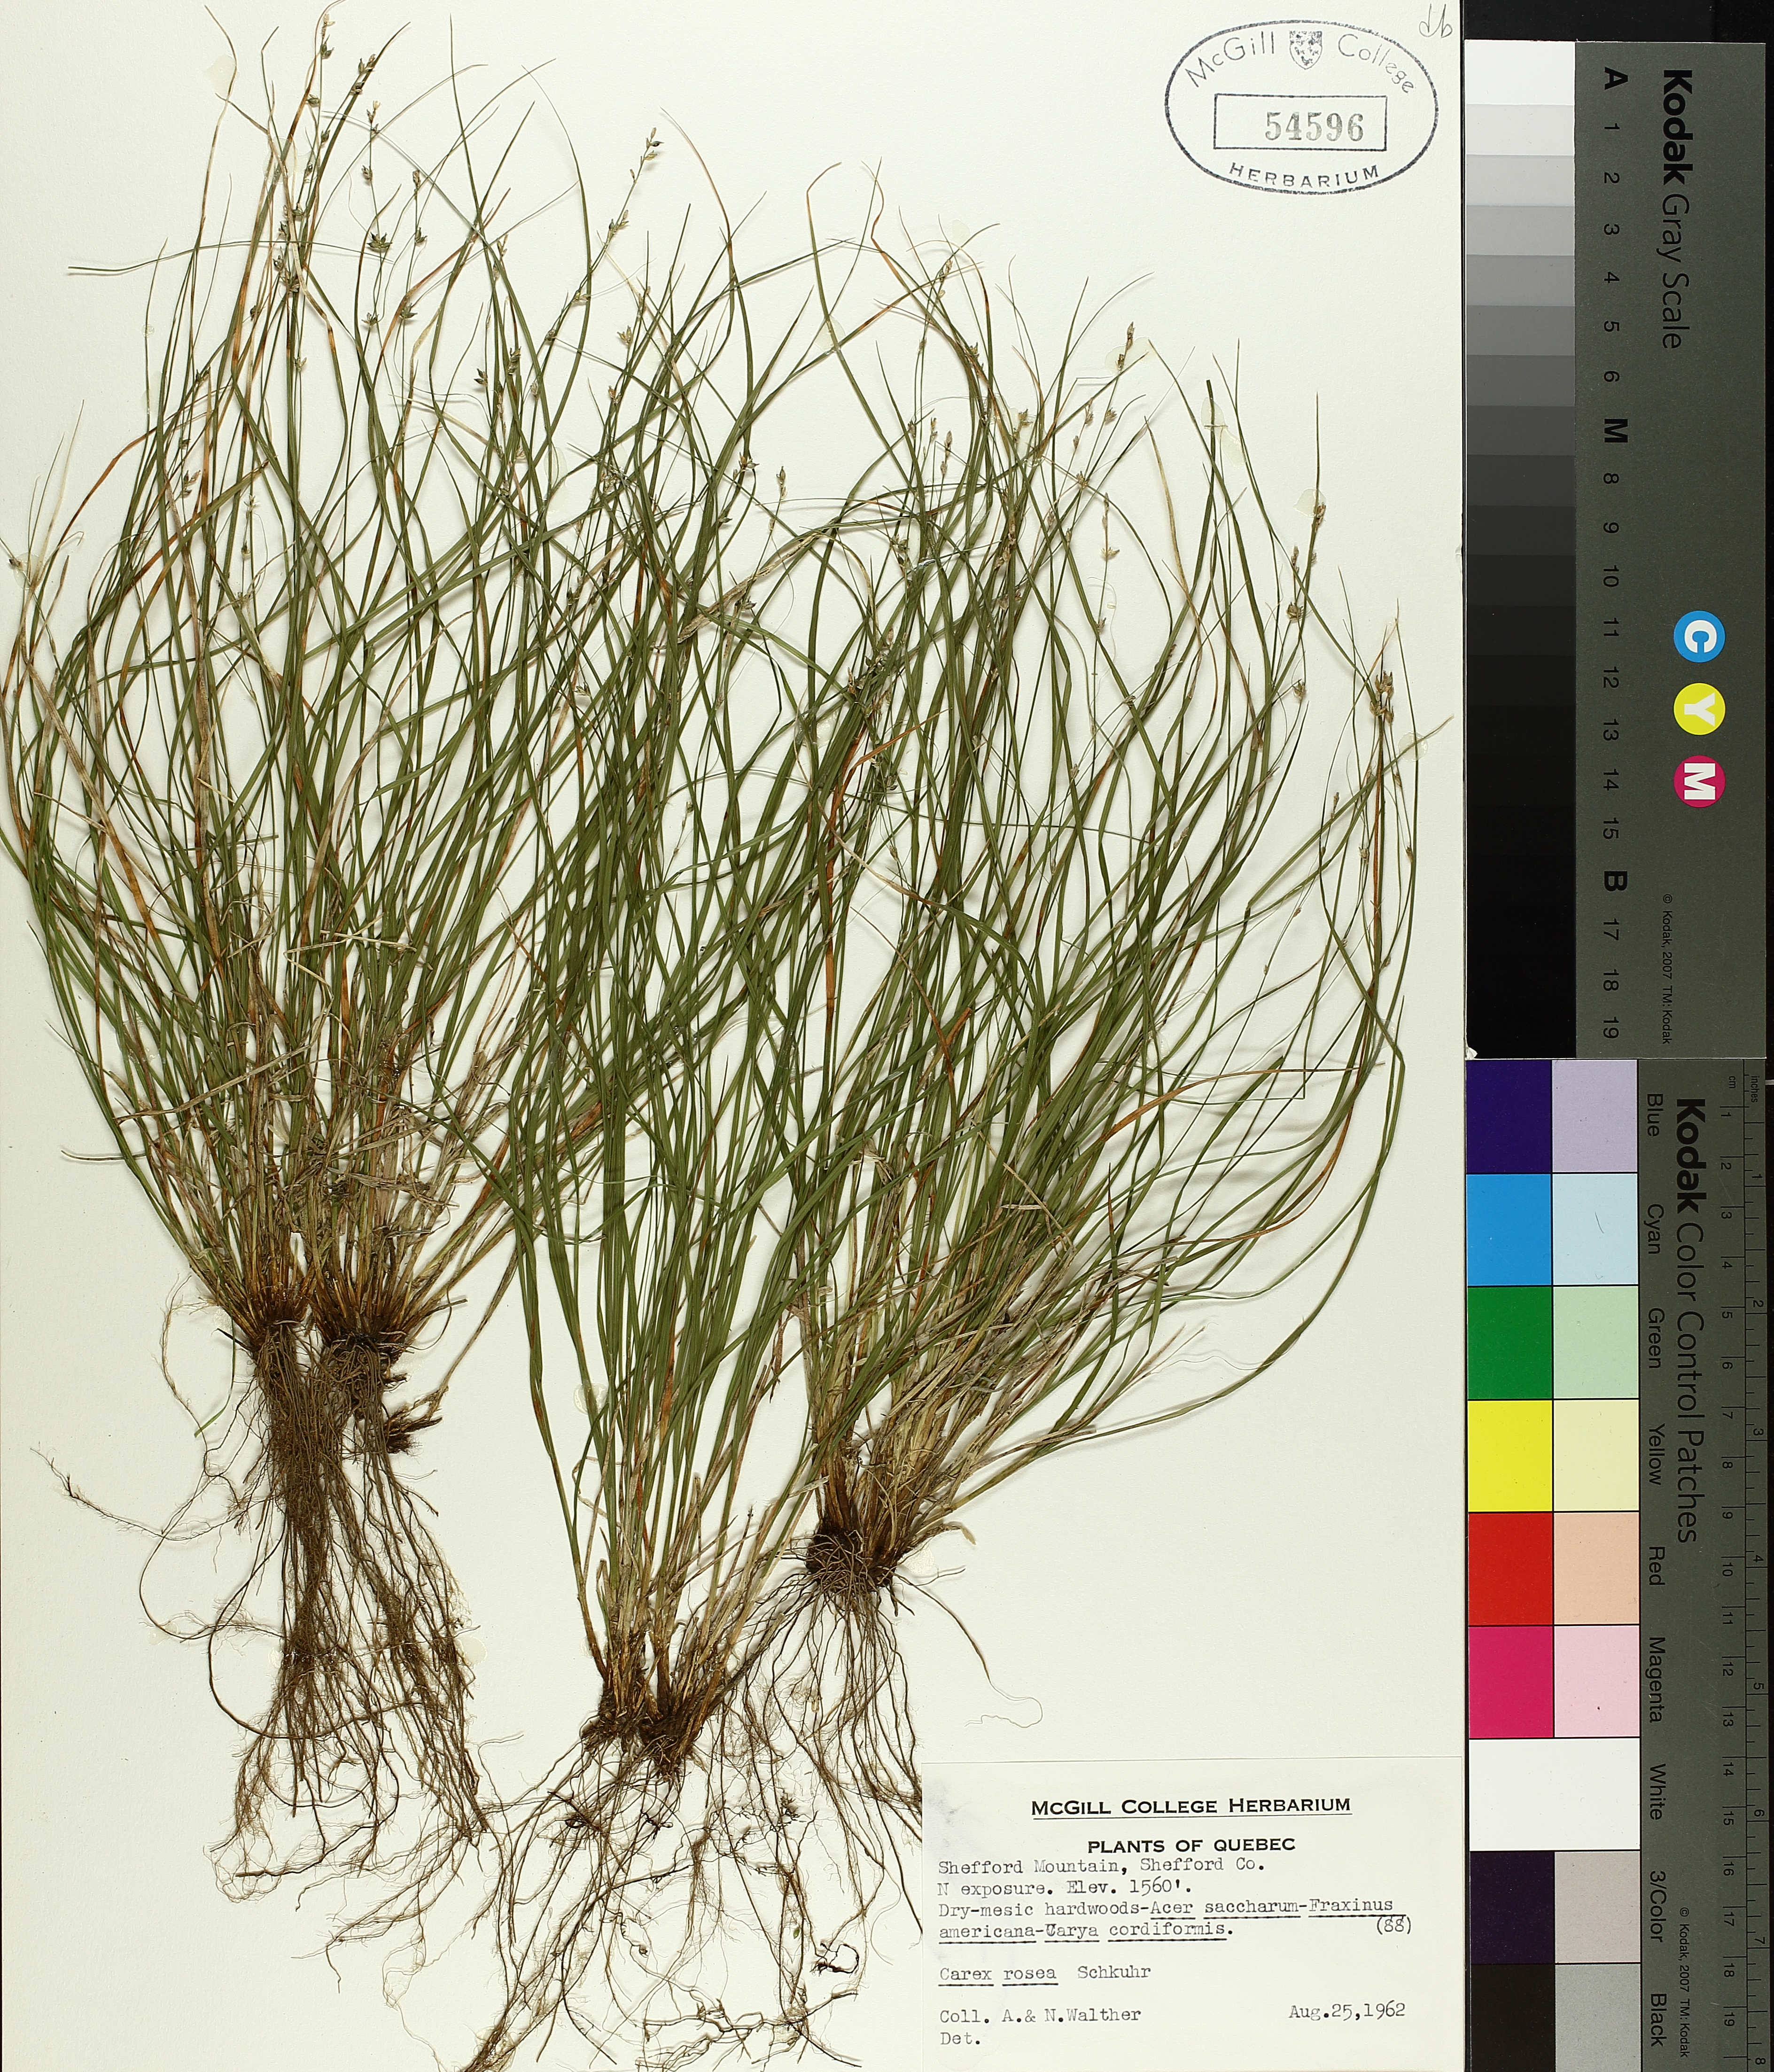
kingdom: Plantae
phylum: Tracheophyta
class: Liliopsida
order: Poales
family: Cyperaceae
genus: Carex
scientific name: Carex rosea
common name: Curly-styled wood sedge
